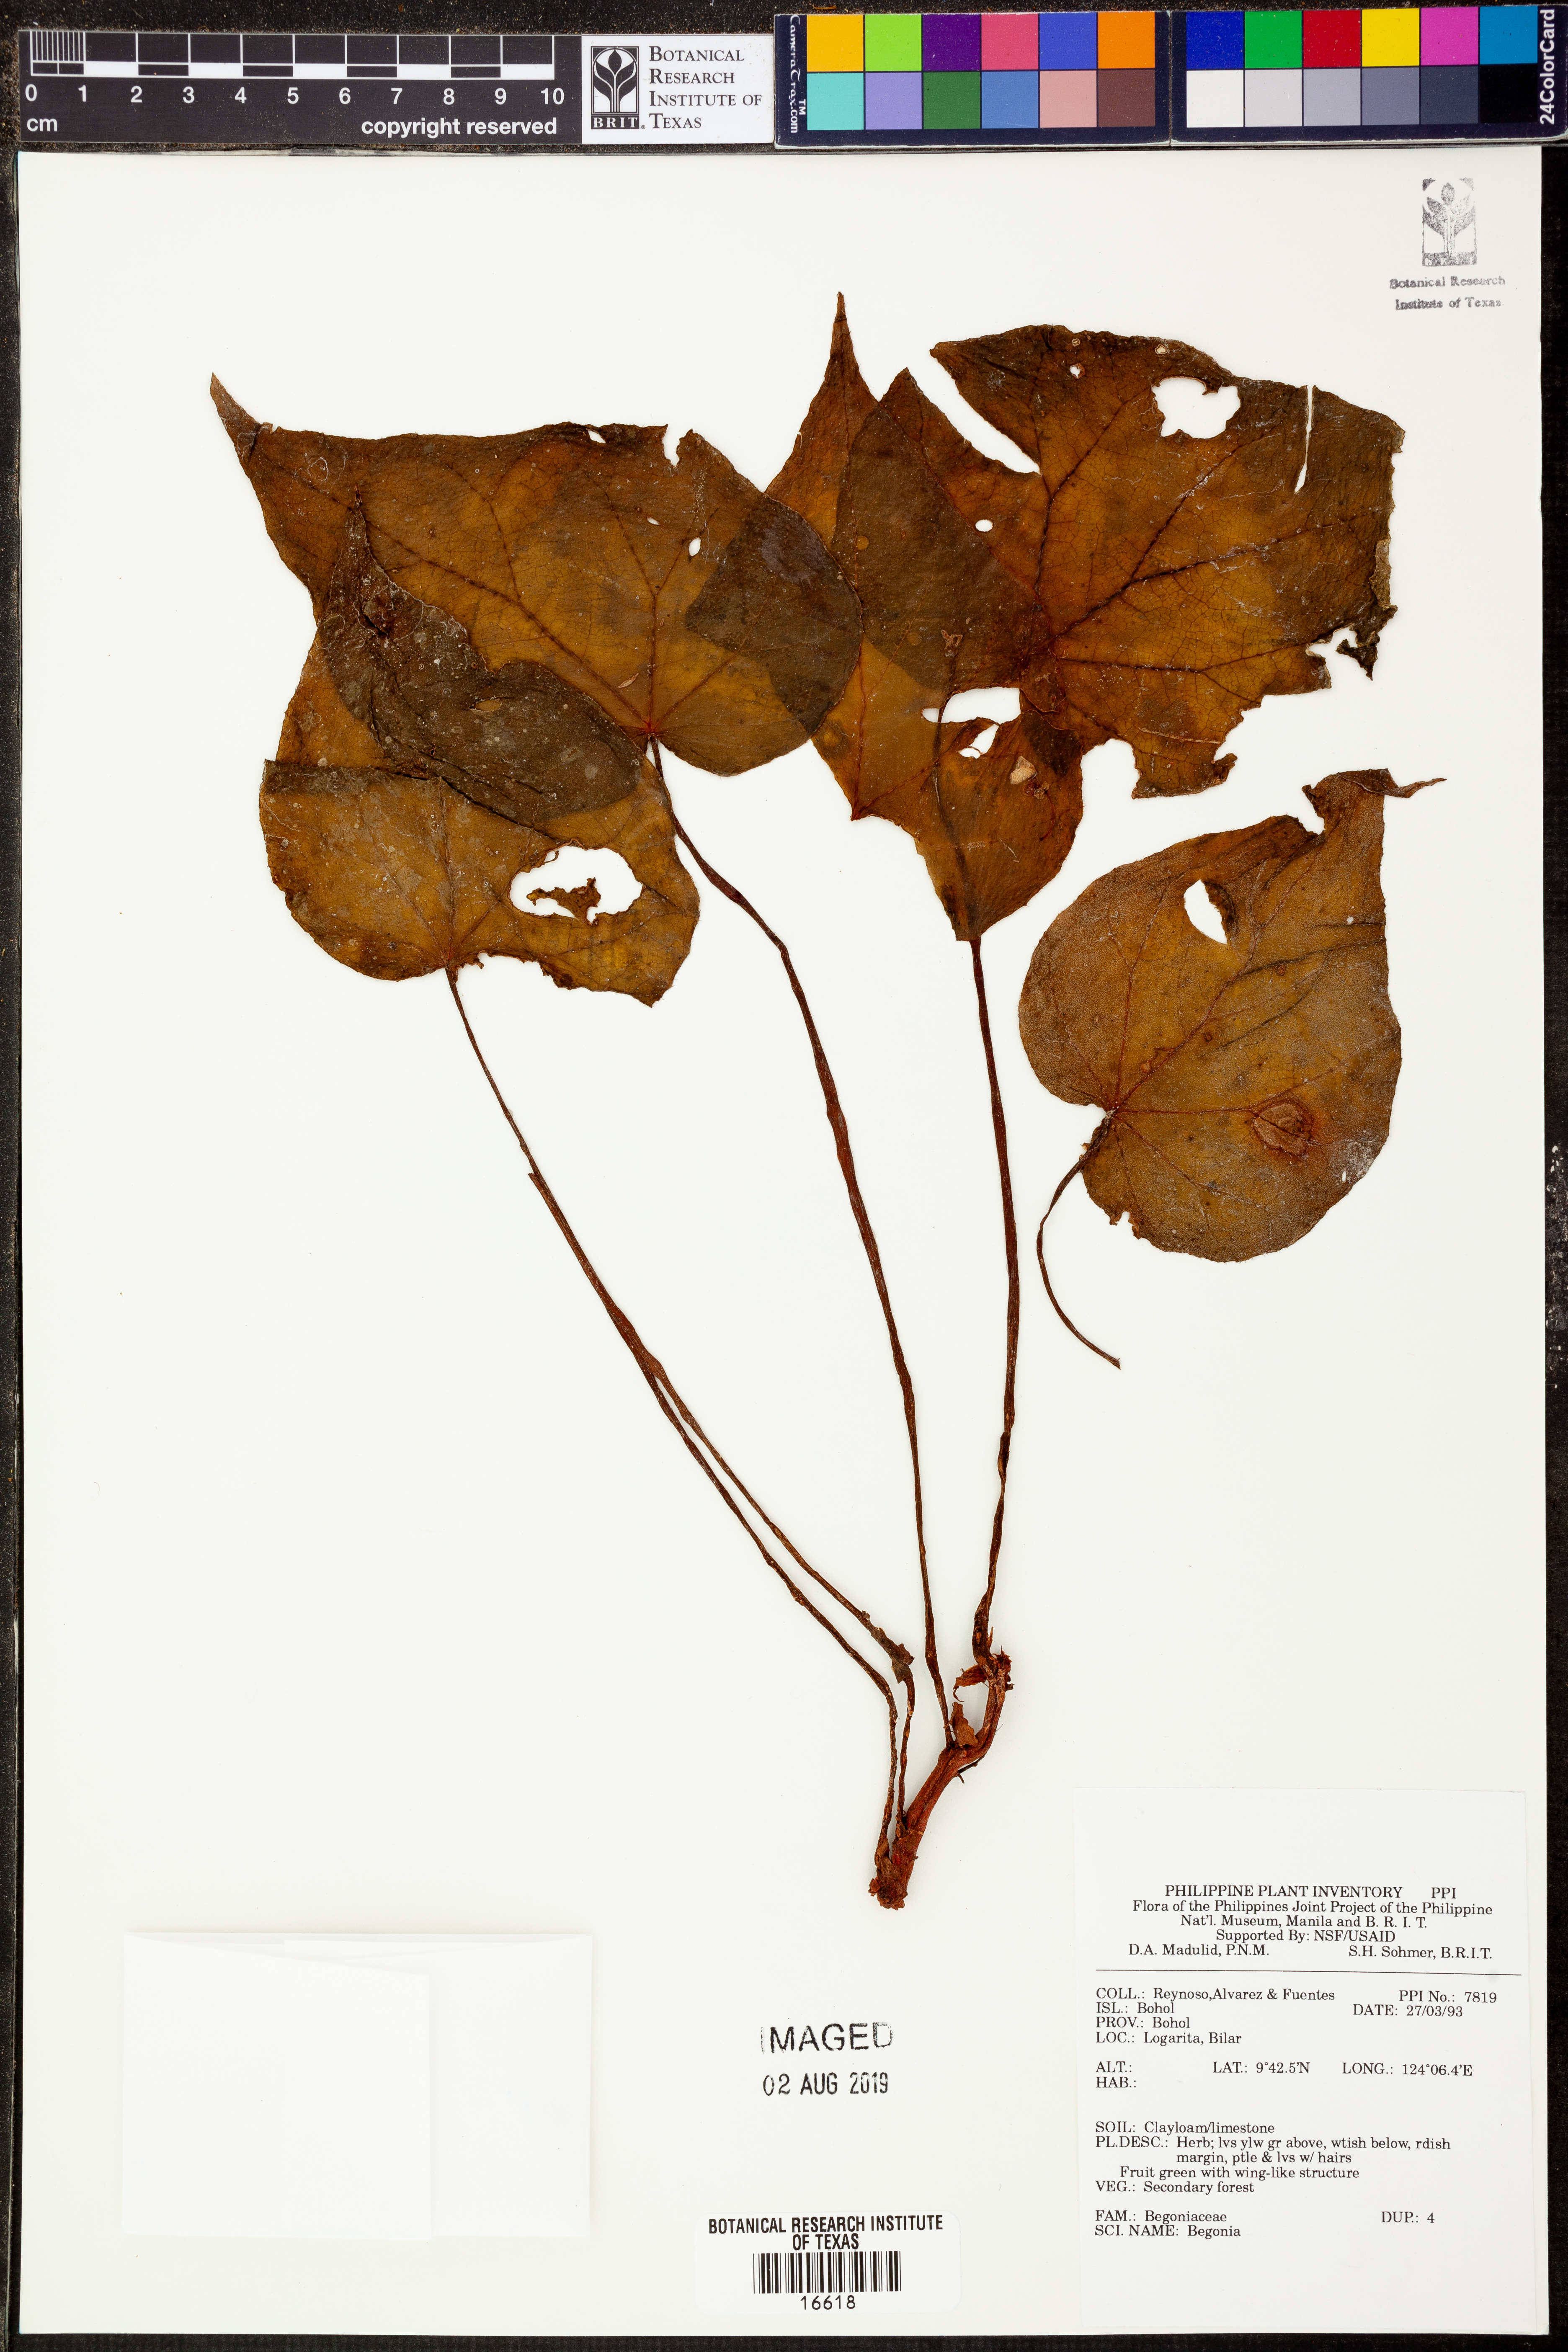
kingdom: Plantae
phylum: Tracheophyta
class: Magnoliopsida
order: Cucurbitales
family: Begoniaceae
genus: Begonia
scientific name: Begonia
